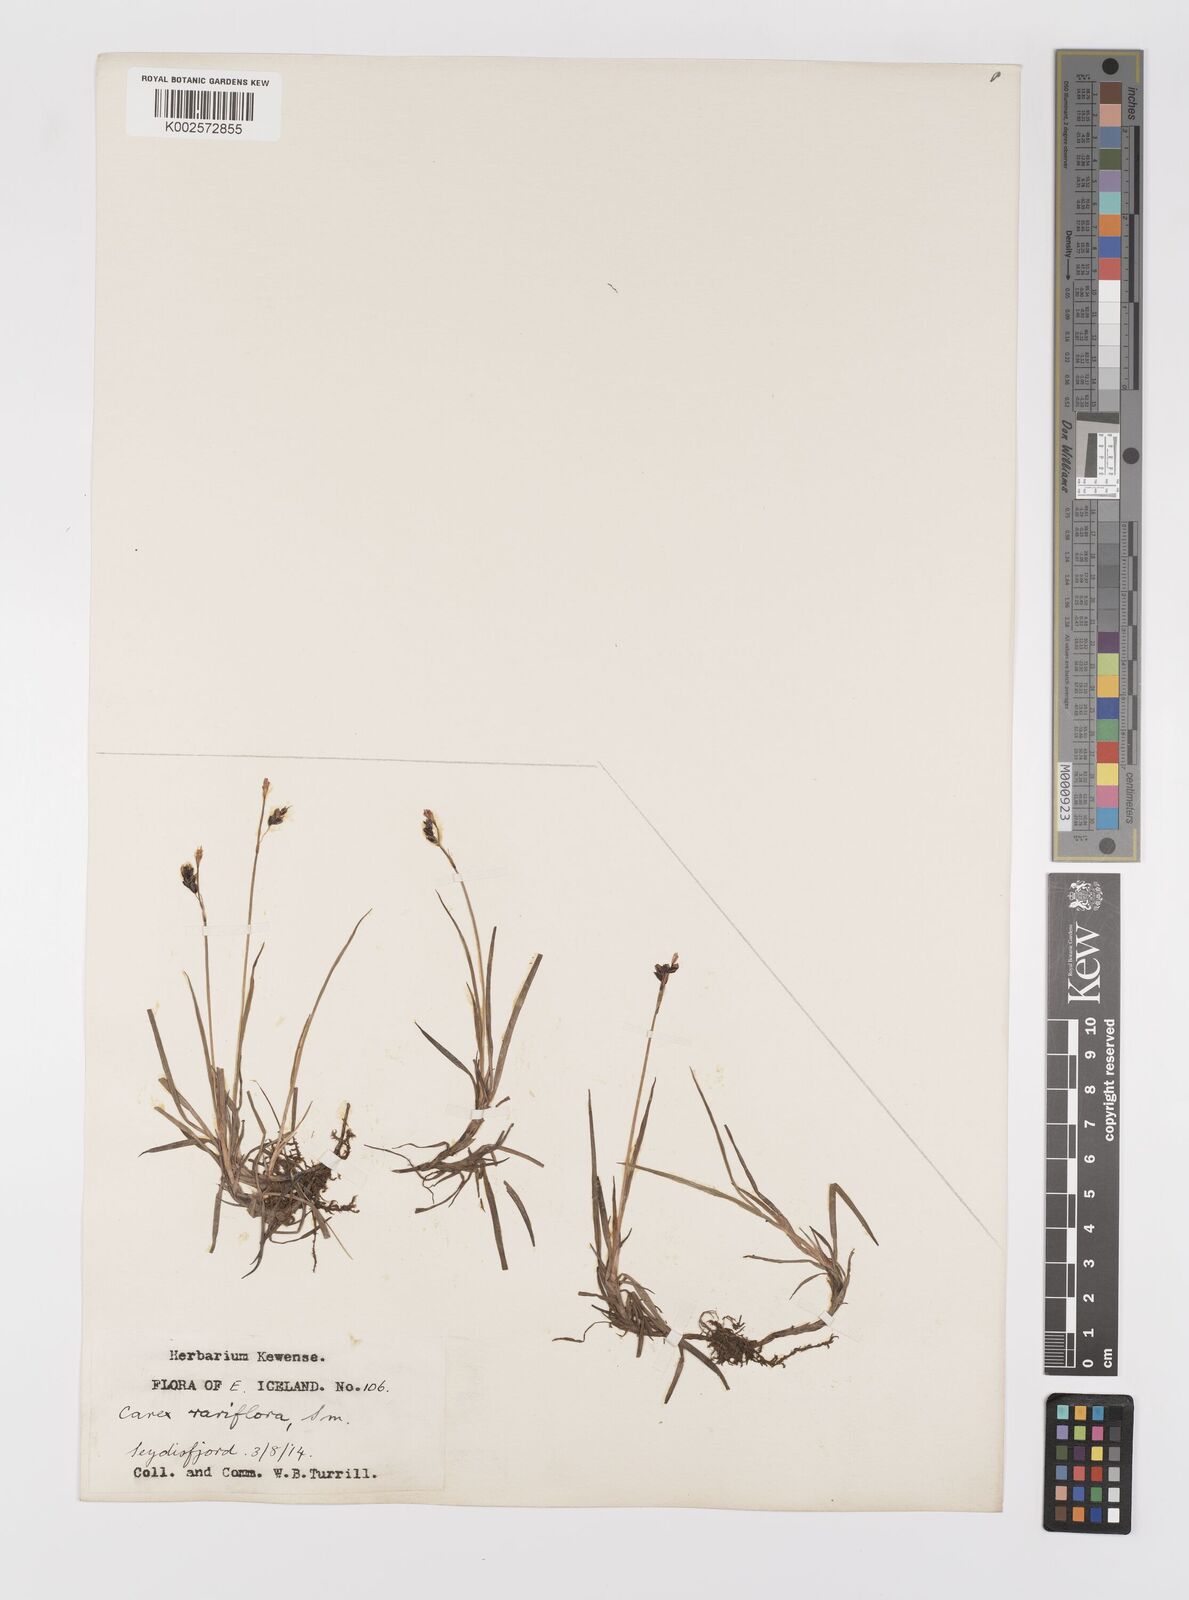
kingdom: Plantae
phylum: Tracheophyta
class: Liliopsida
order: Poales
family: Cyperaceae
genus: Carex
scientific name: Carex rariflora
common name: Loose-flowered alpine sedge
